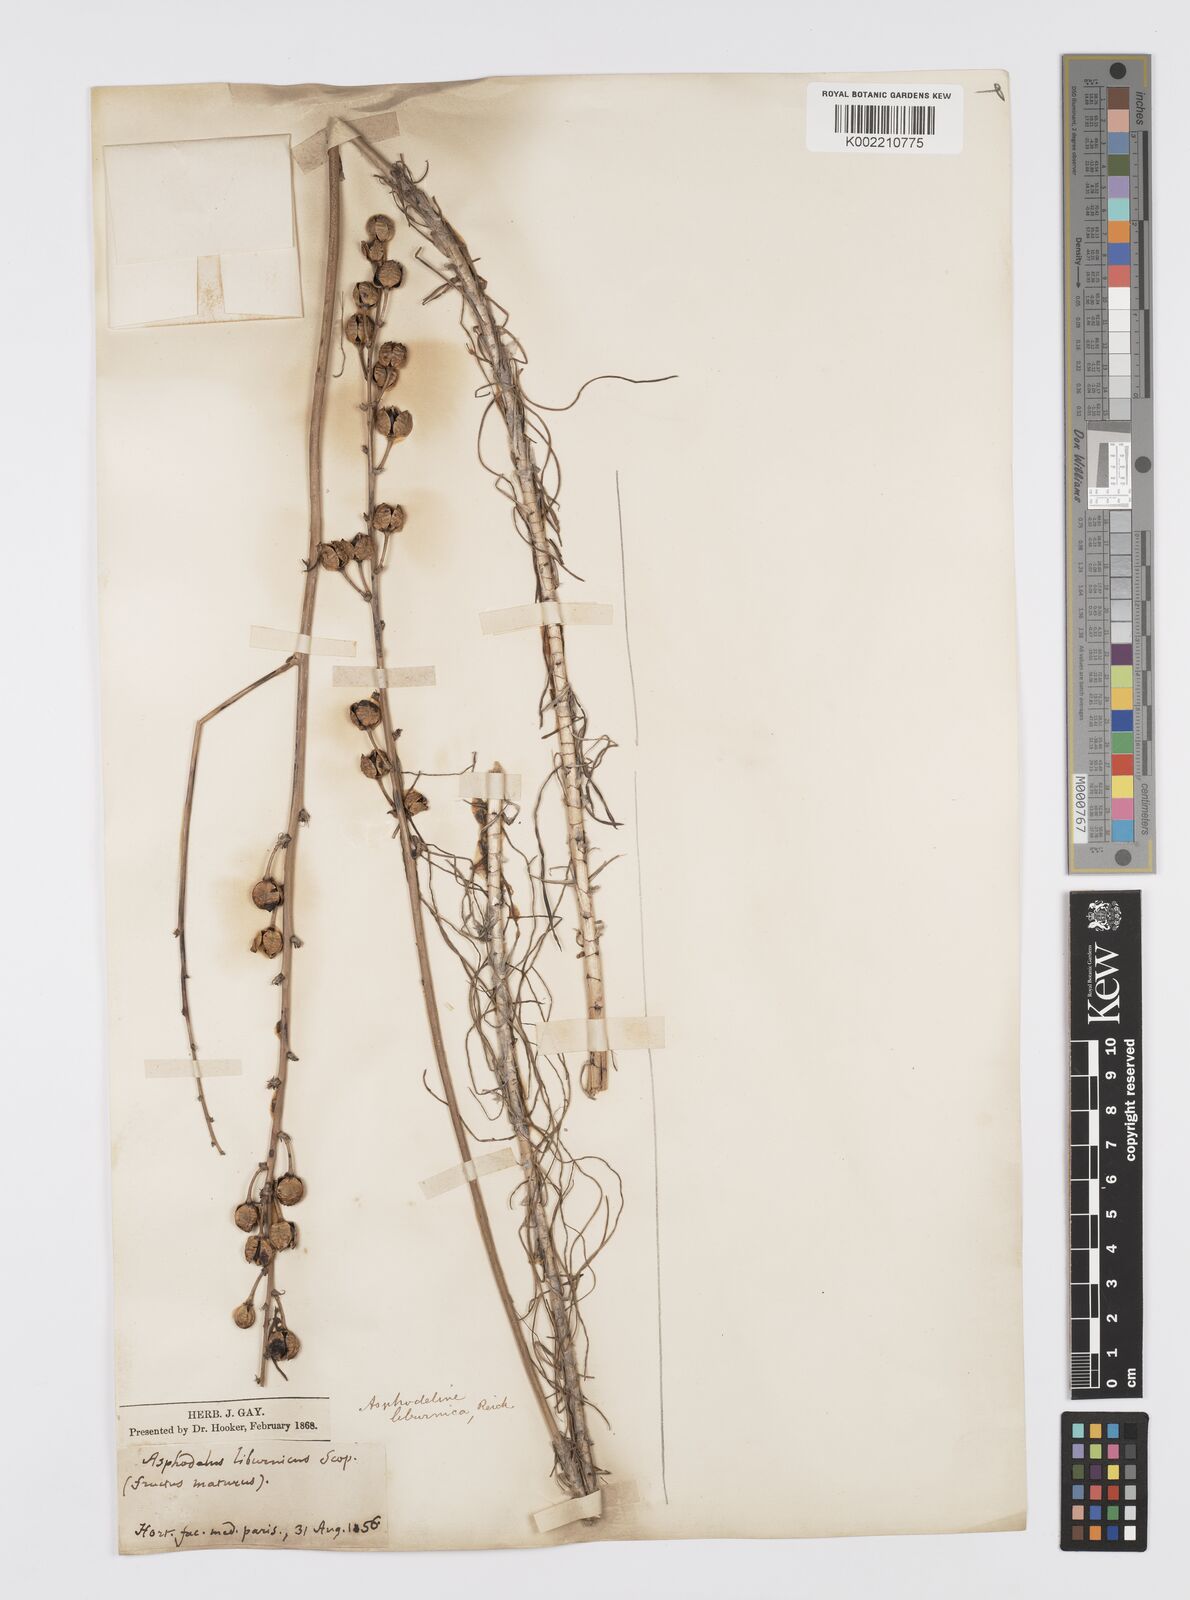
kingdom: Plantae
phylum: Tracheophyta
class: Liliopsida
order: Asparagales
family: Asphodelaceae
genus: Asphodeline
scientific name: Asphodeline liburnica
